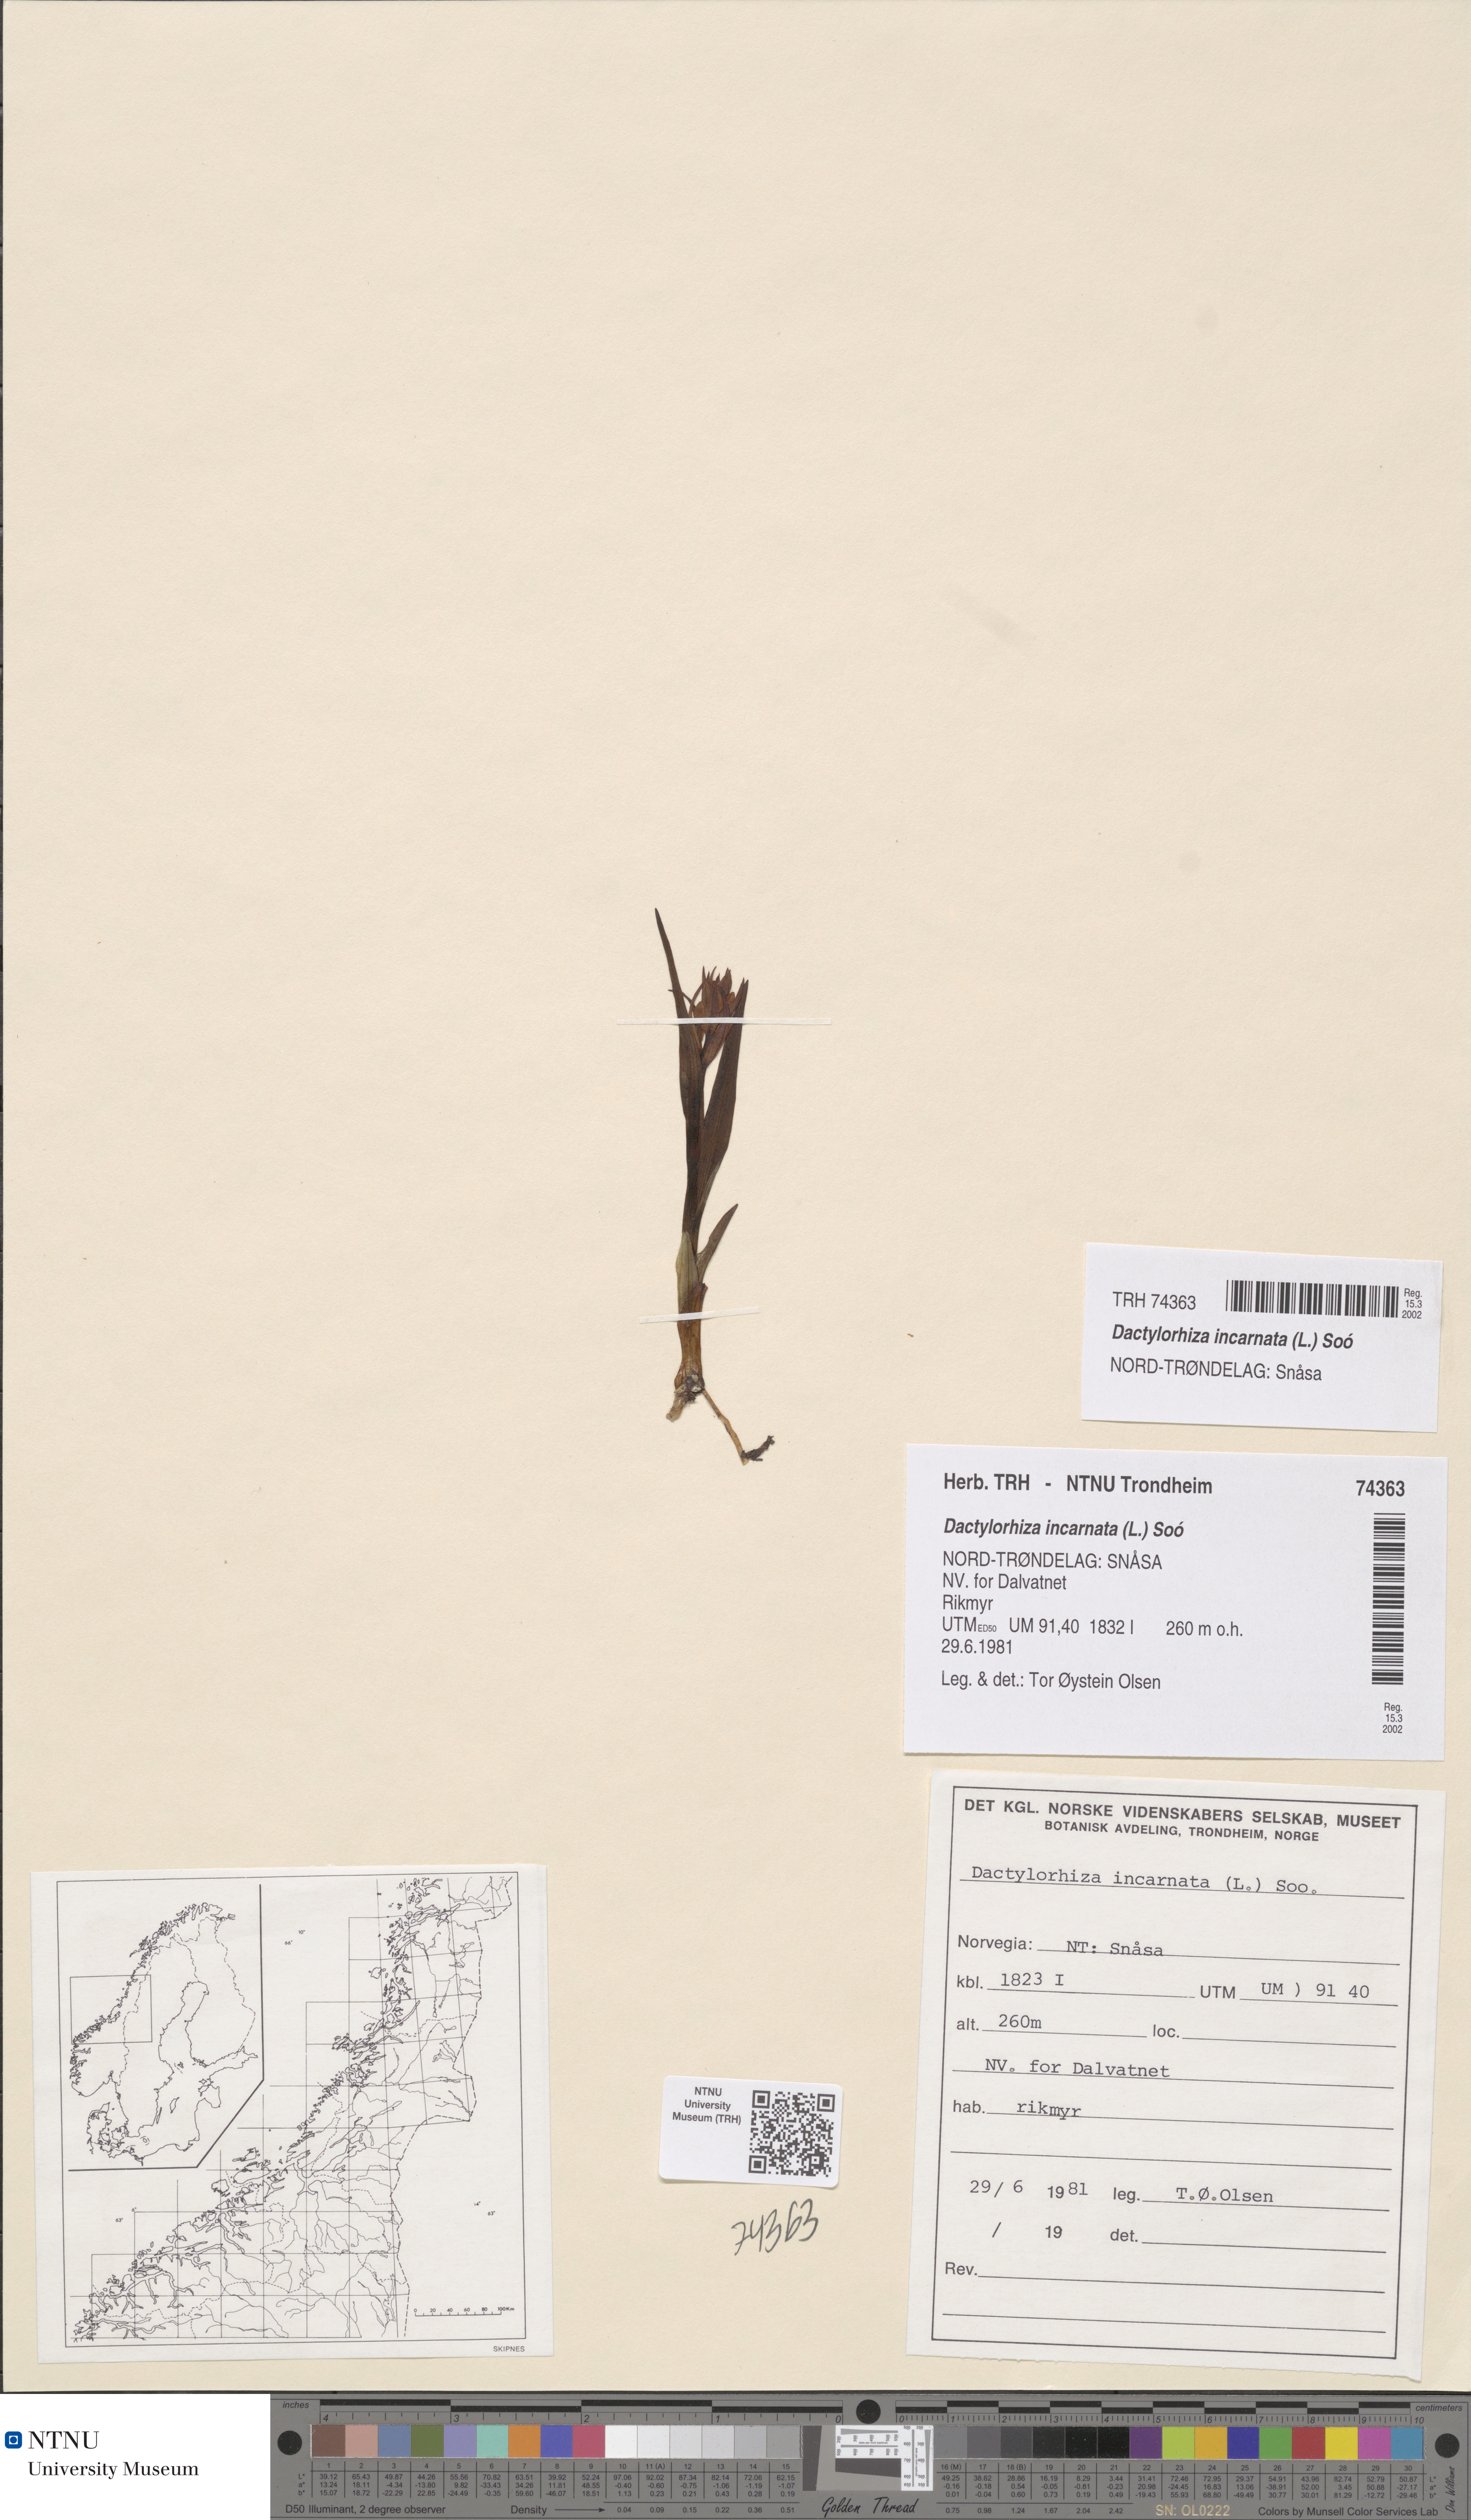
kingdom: Plantae
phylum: Tracheophyta
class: Liliopsida
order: Asparagales
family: Orchidaceae
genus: Dactylorhiza
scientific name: Dactylorhiza incarnata
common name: Early marsh-orchid
